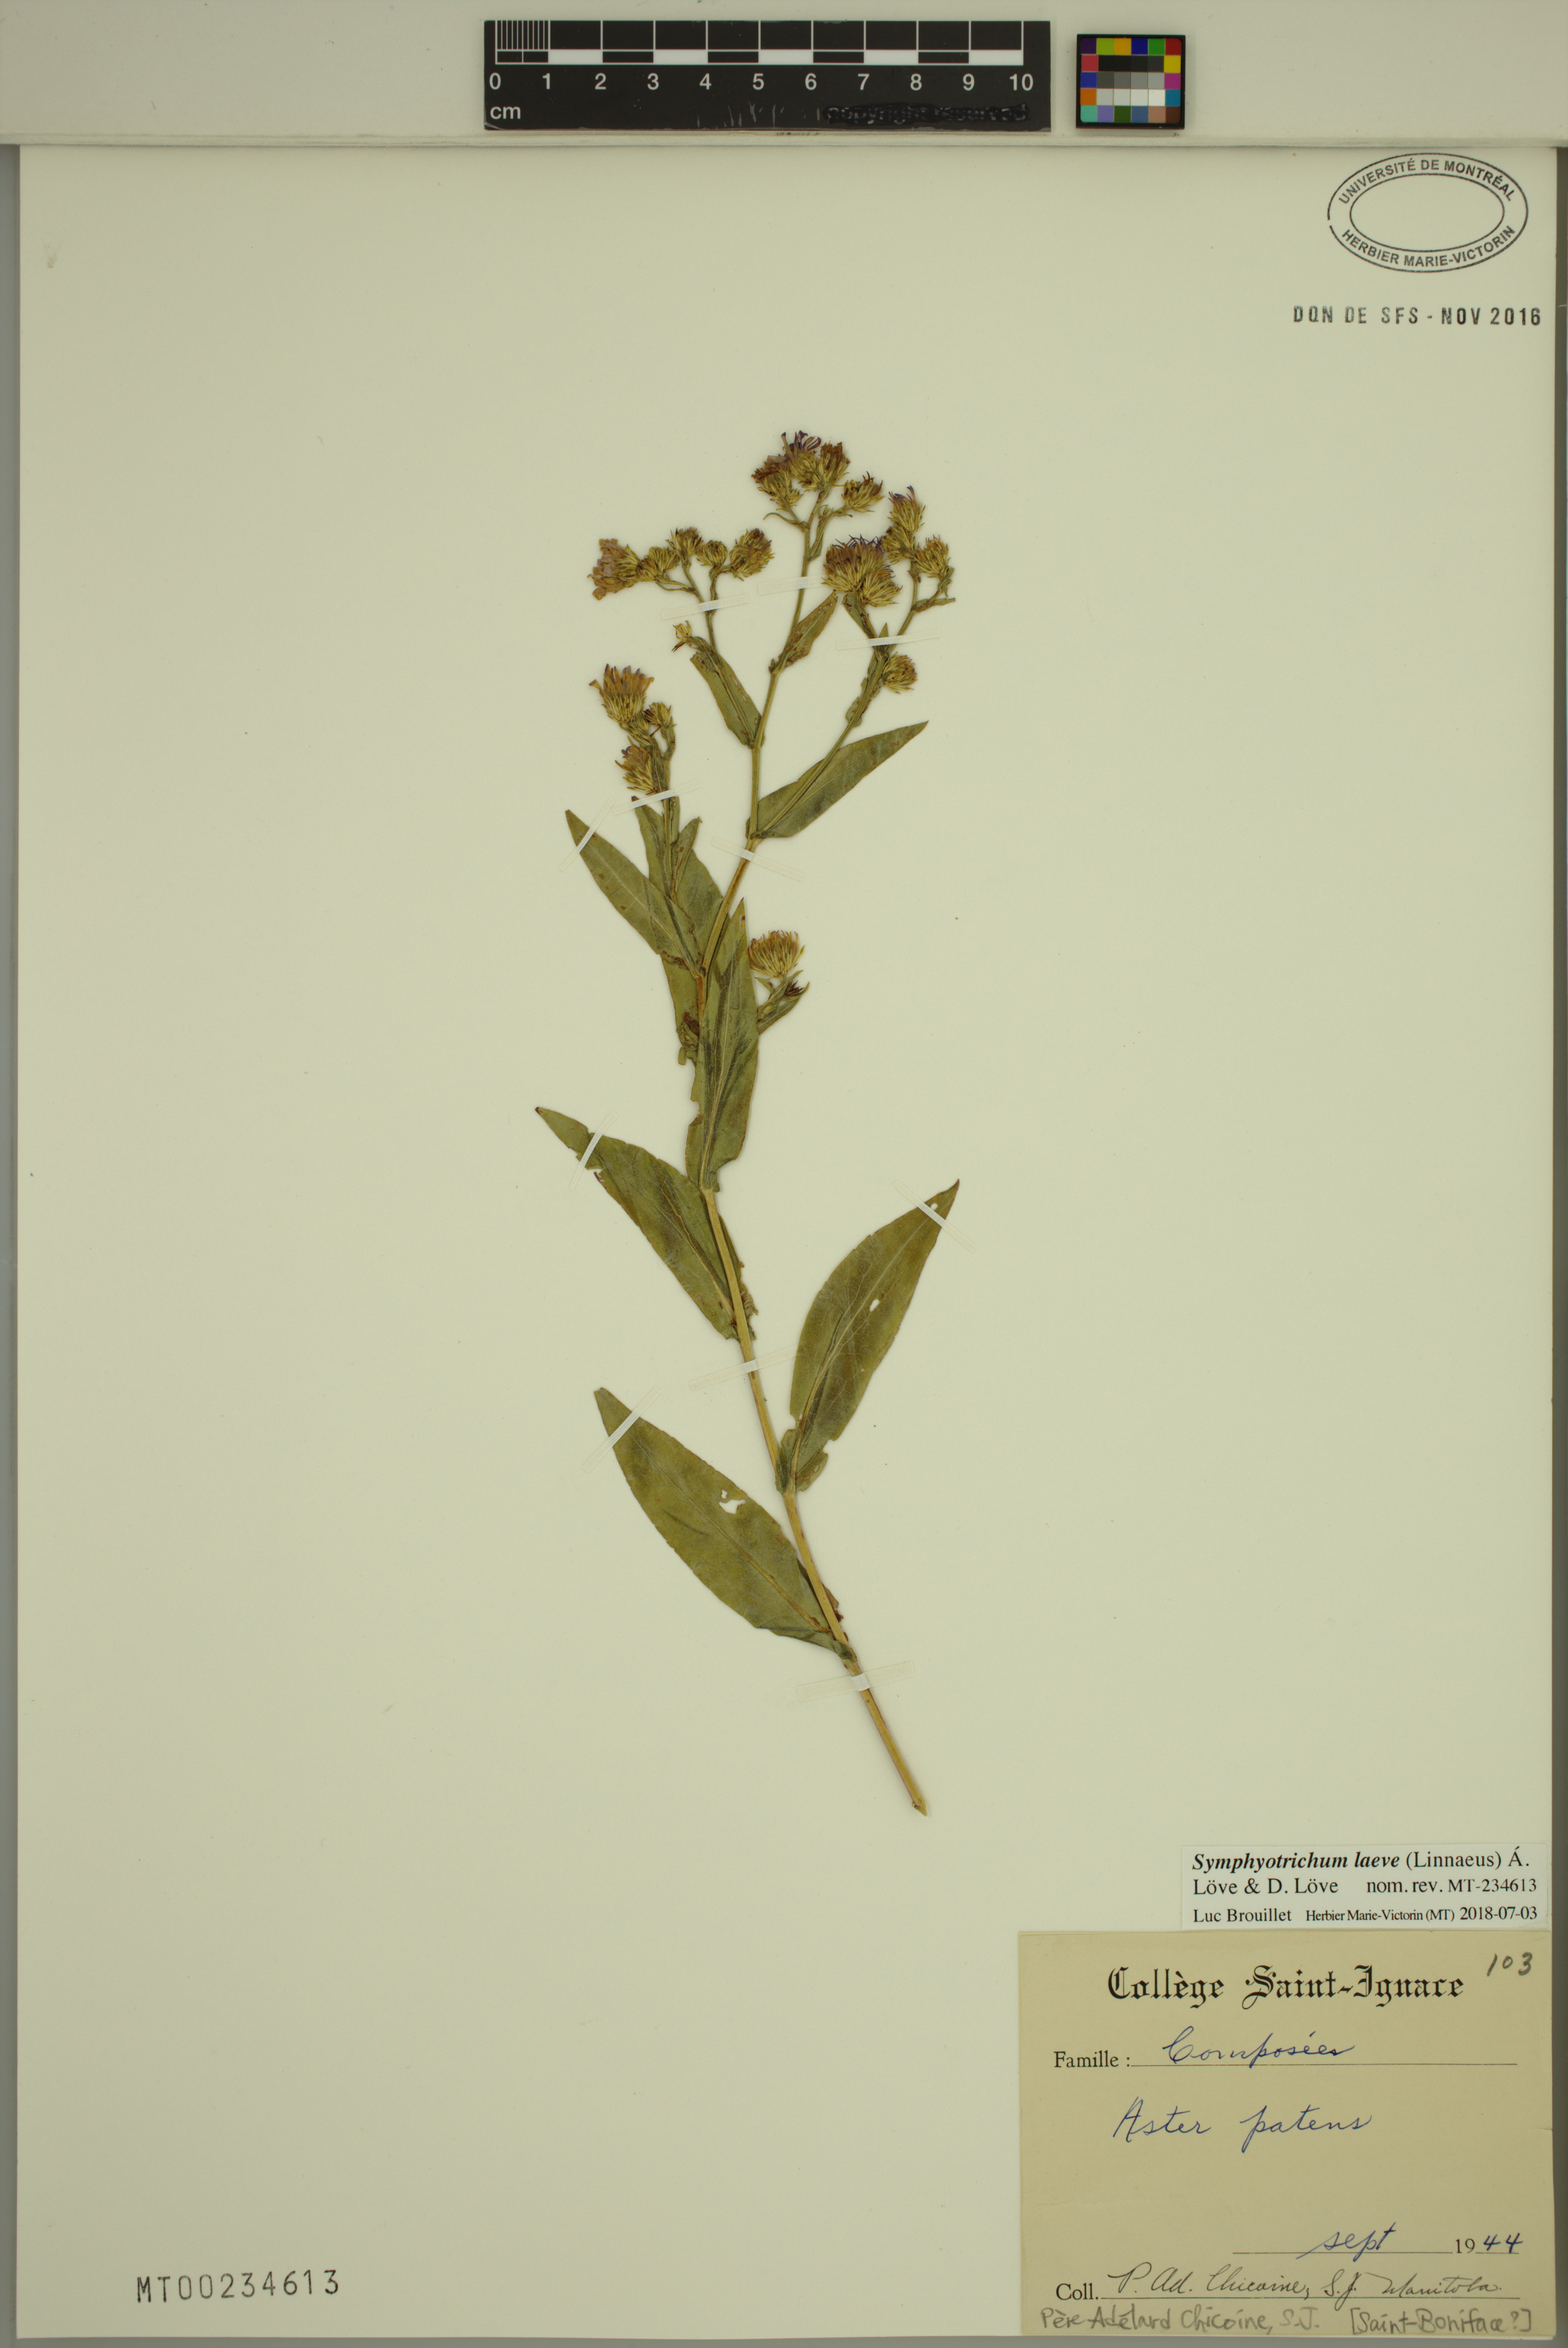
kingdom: Plantae
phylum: Tracheophyta
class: Magnoliopsida
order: Asterales
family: Asteraceae
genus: Symphyotrichum
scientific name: Symphyotrichum laeve
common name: Glaucous aster
